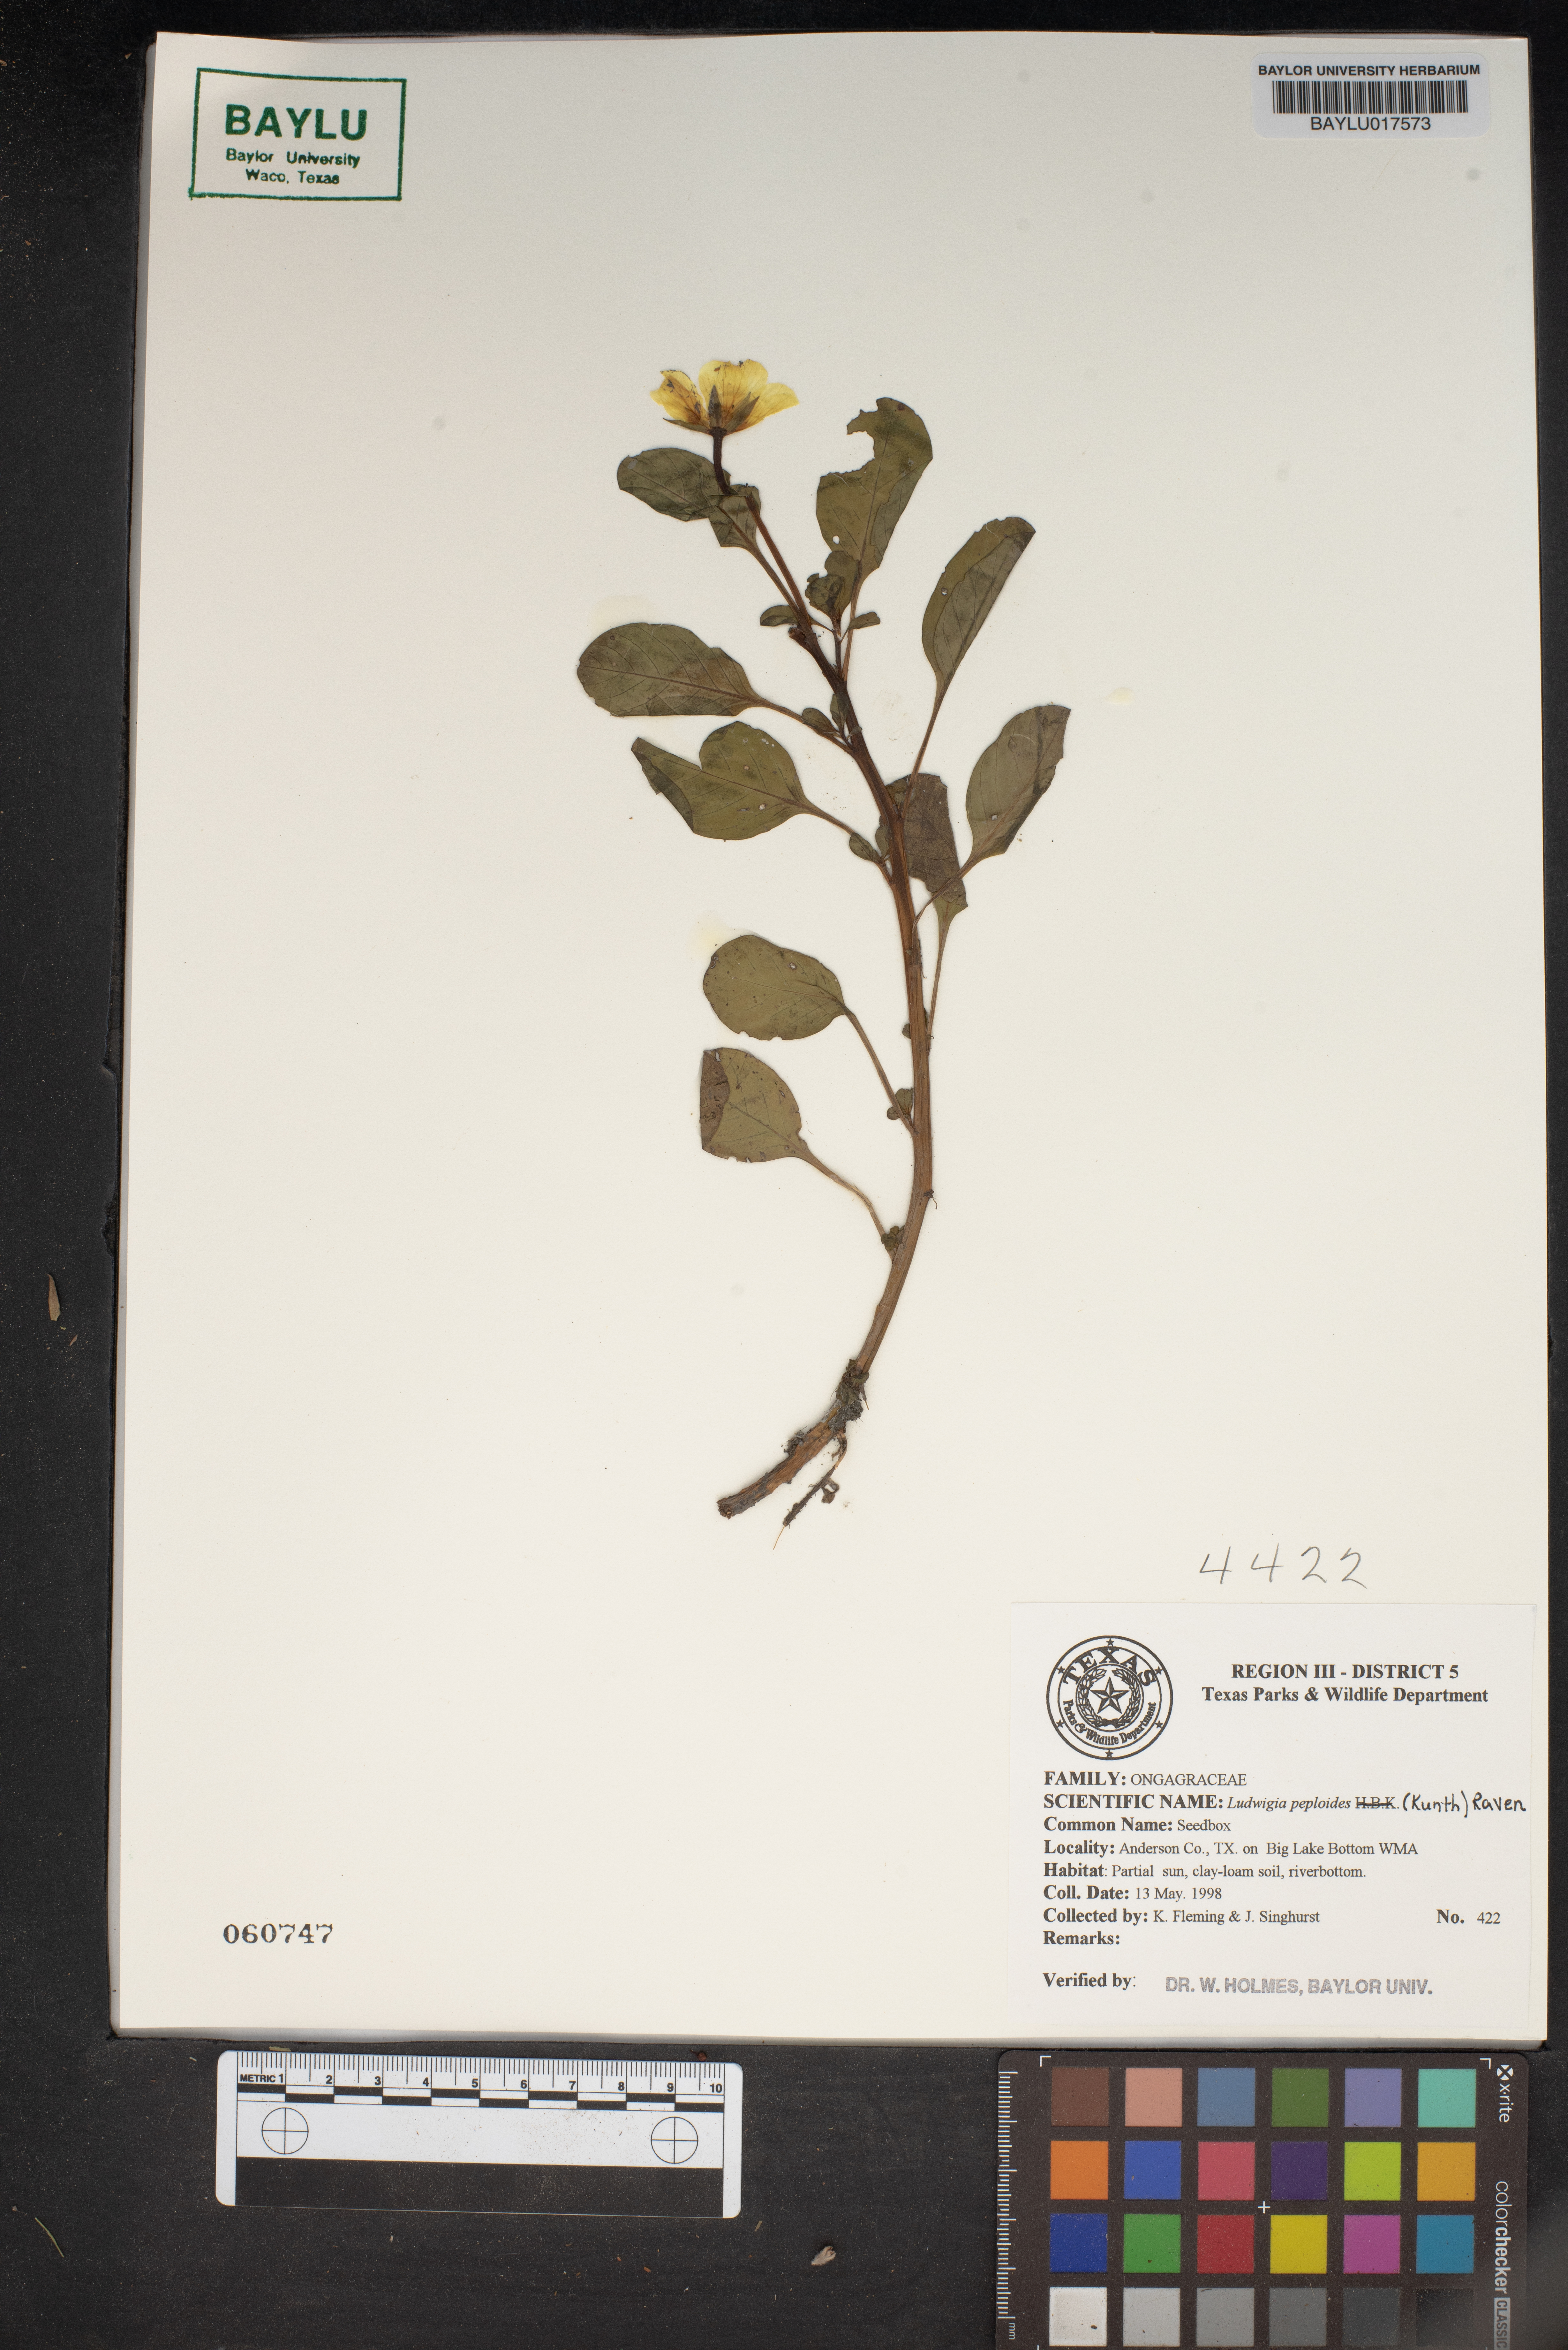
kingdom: Plantae
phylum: Tracheophyta
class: Magnoliopsida
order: Myrtales
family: Onagraceae
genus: Ludwigia
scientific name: Ludwigia peploides
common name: Floating primrose-willow
